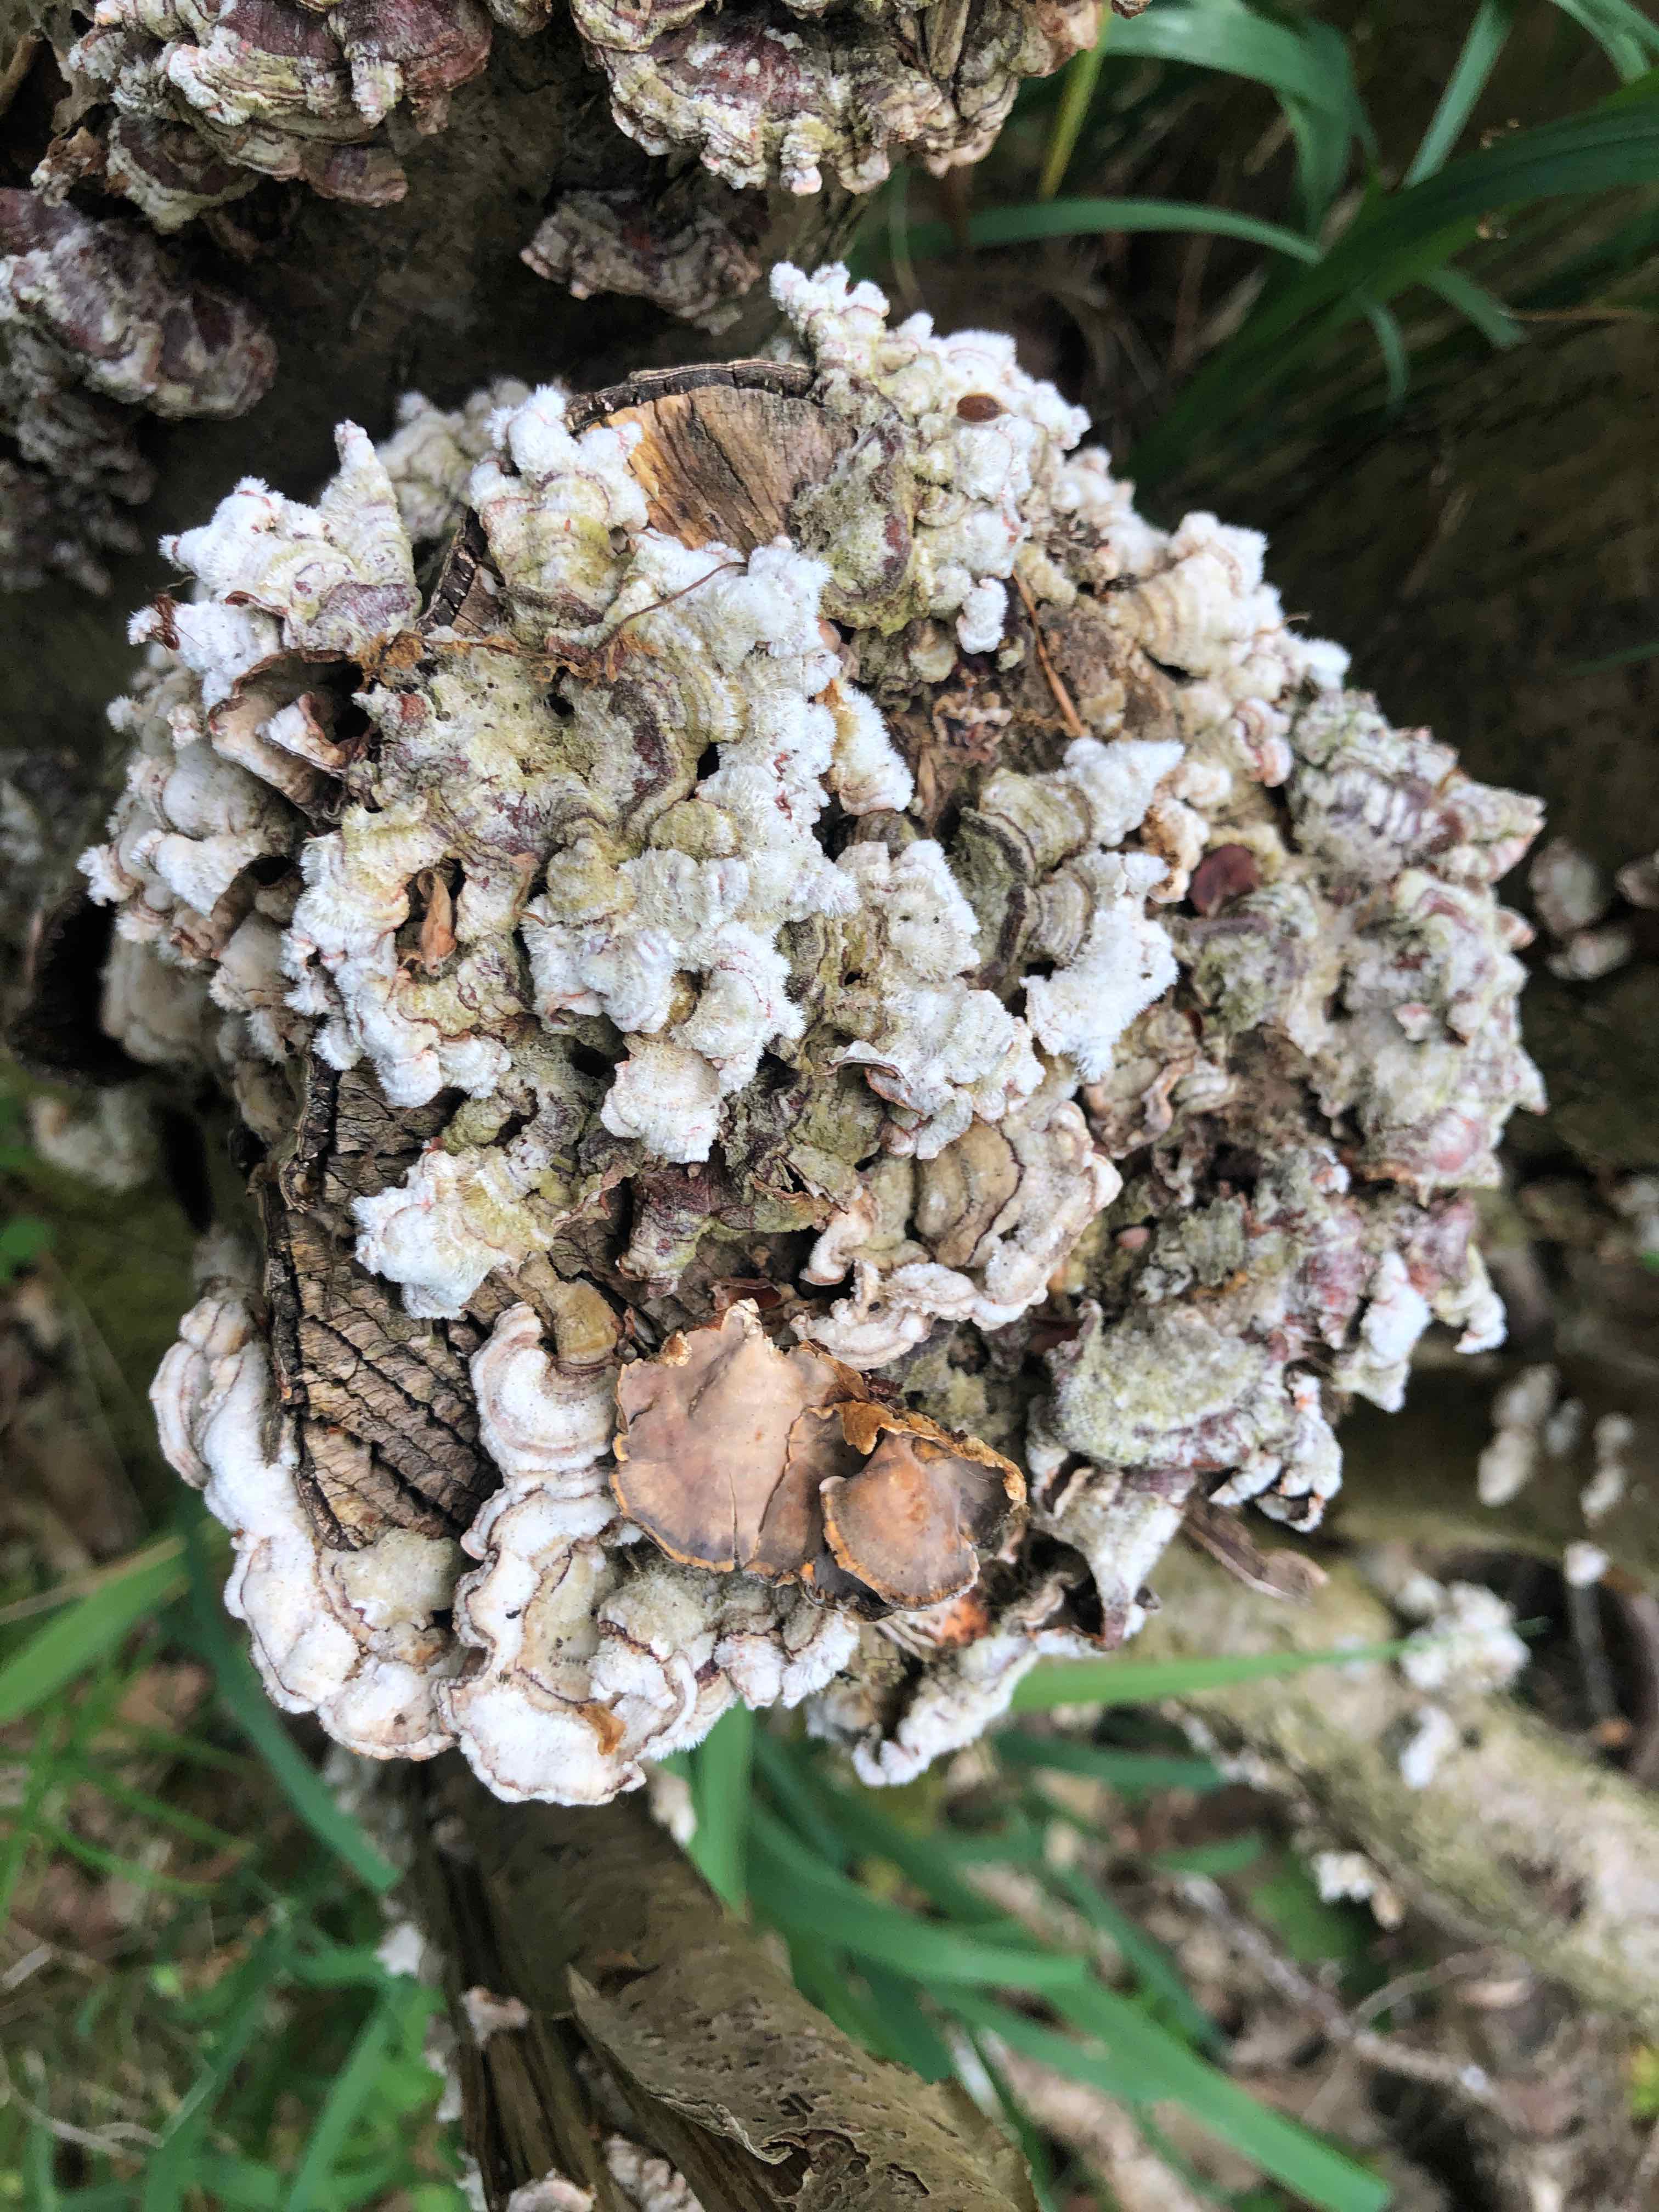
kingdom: Fungi
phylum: Basidiomycota
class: Agaricomycetes
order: Russulales
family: Stereaceae
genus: Stereum
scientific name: Stereum hirsutum
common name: håret lædersvamp
